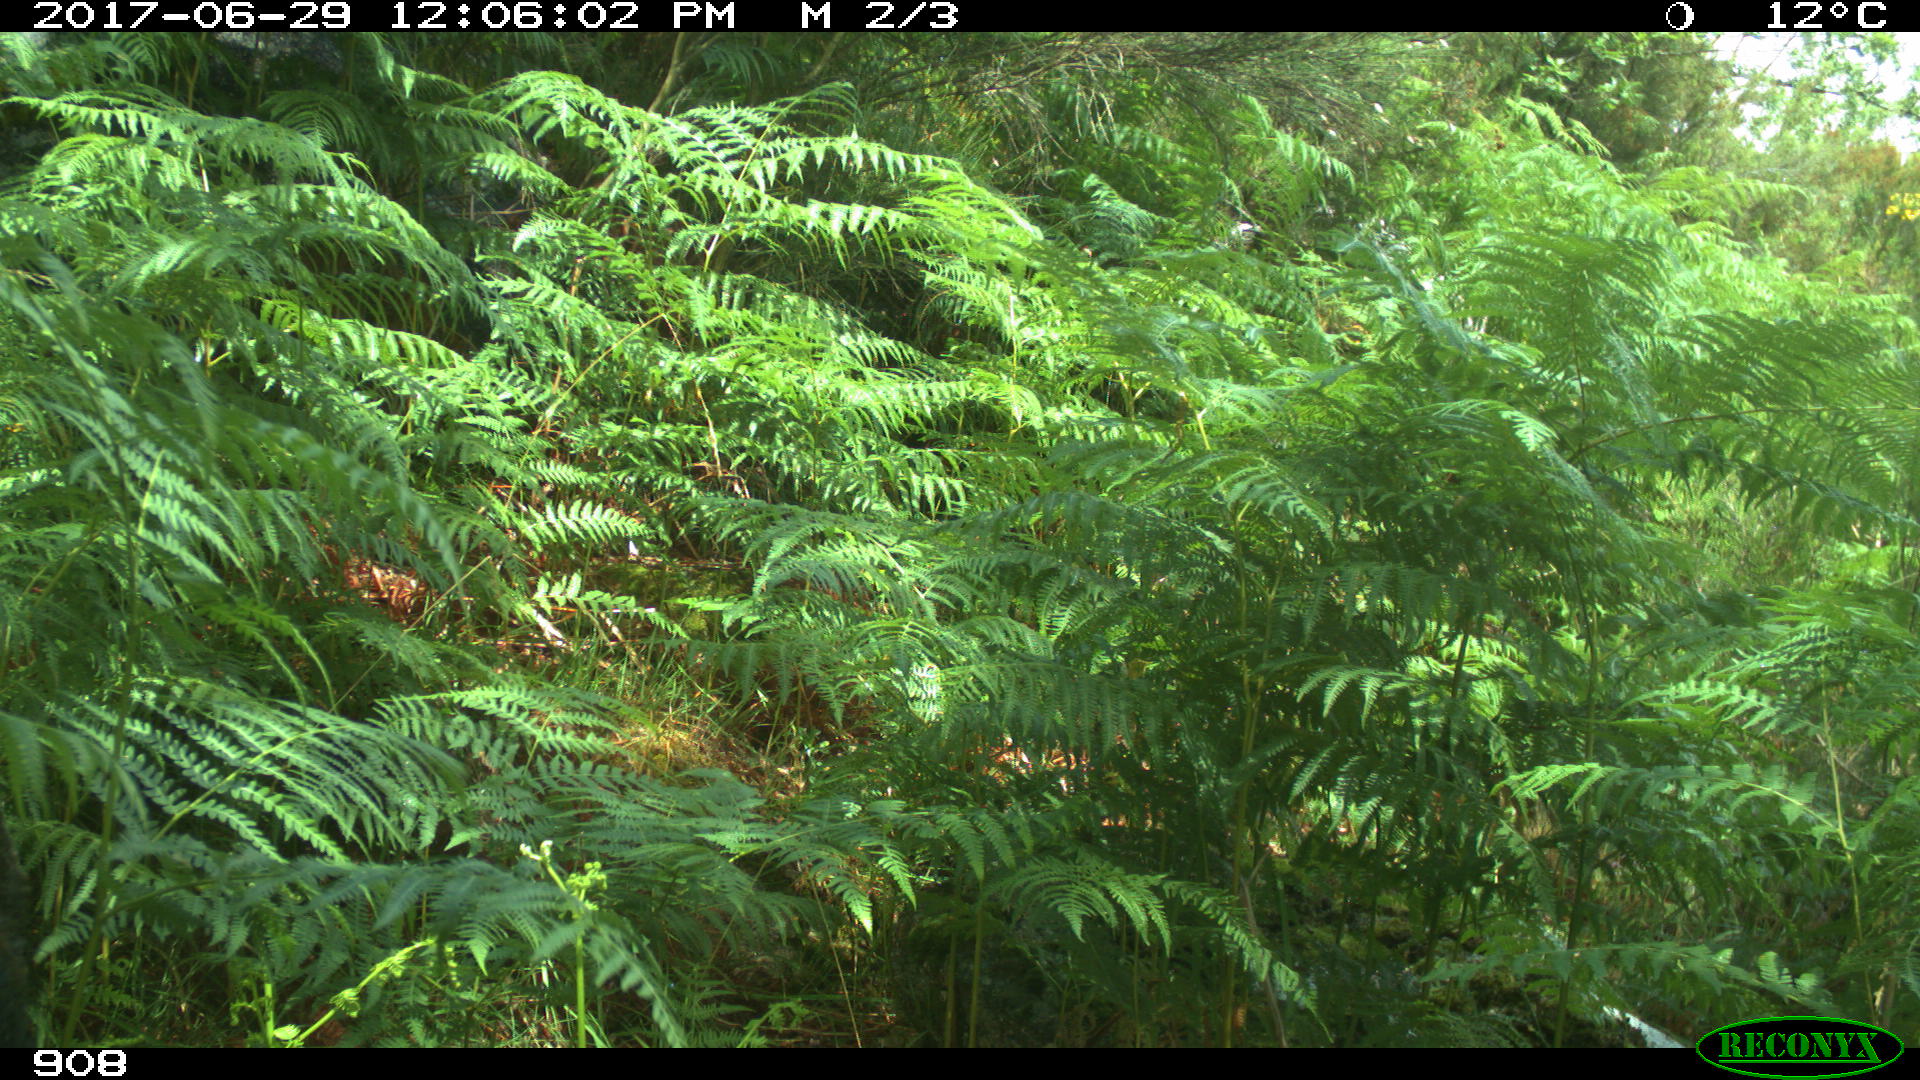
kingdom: Animalia
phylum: Chordata
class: Mammalia
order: Artiodactyla
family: Suidae
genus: Sus
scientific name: Sus scrofa
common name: Wild boar
